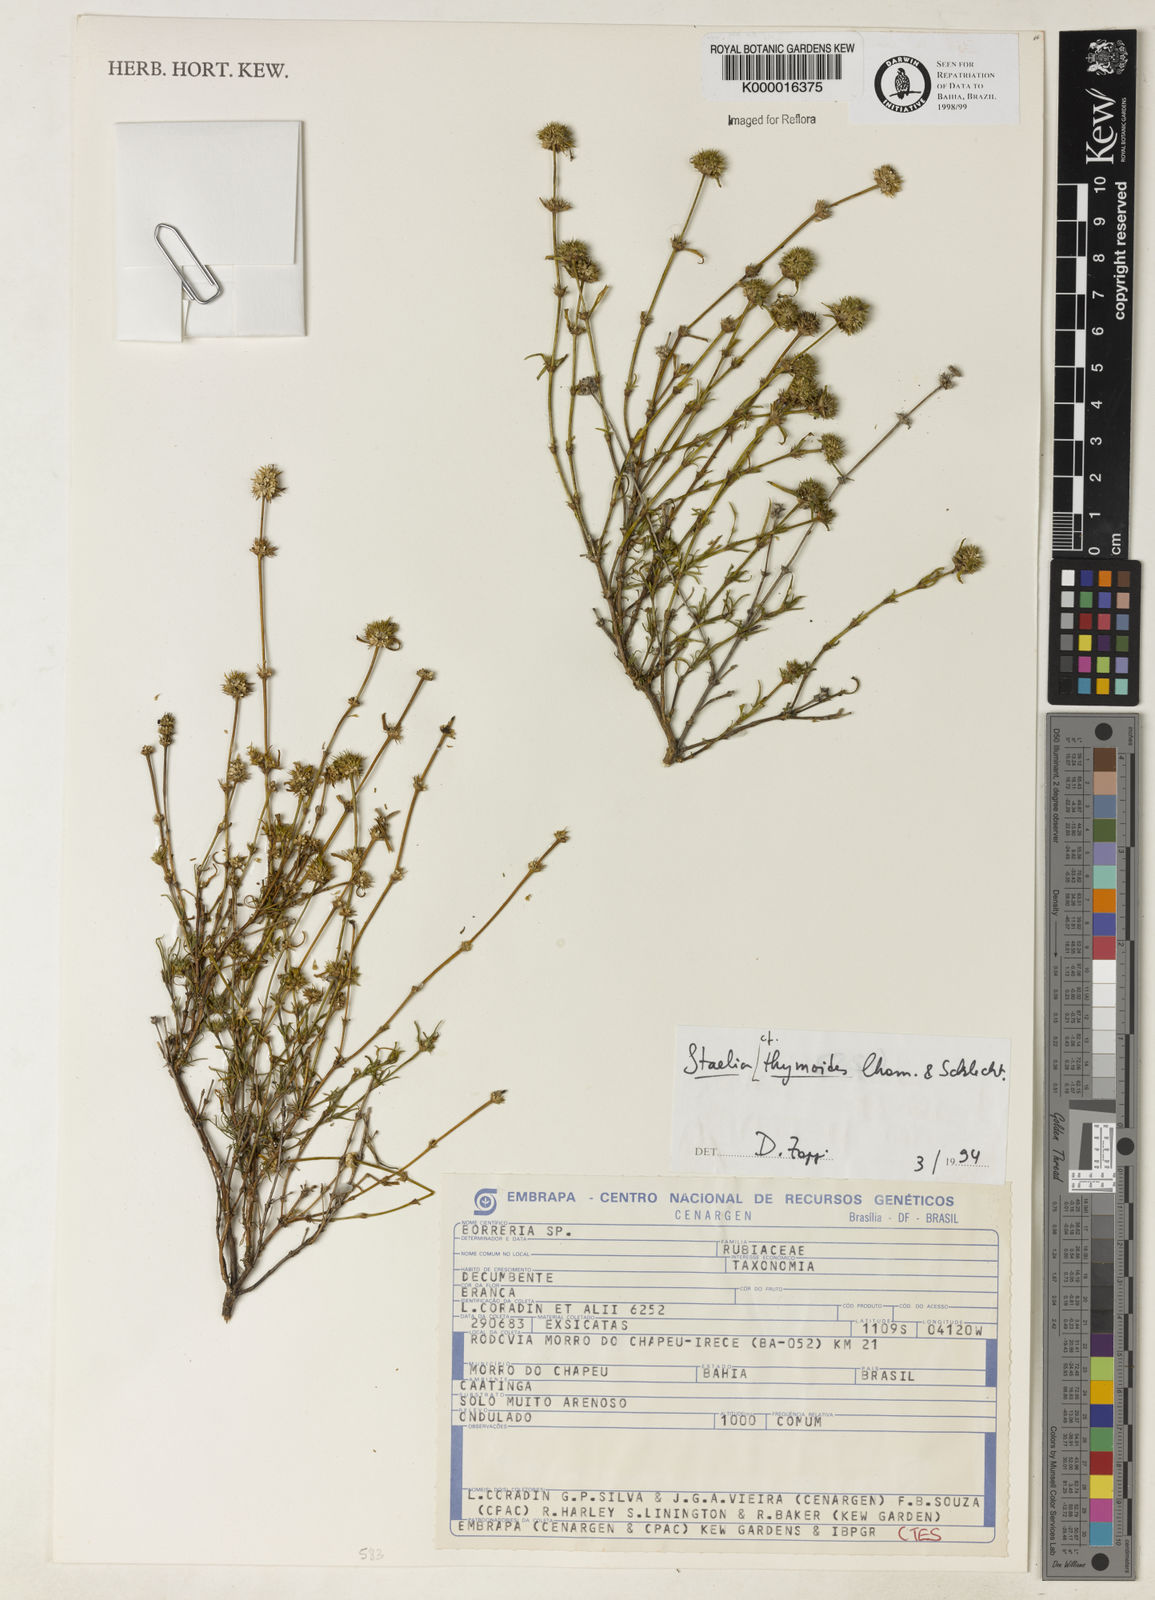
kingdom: Plantae
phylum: Tracheophyta
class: Magnoliopsida
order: Gentianales
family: Rubiaceae
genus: Staelia
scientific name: Staelia thymoides
